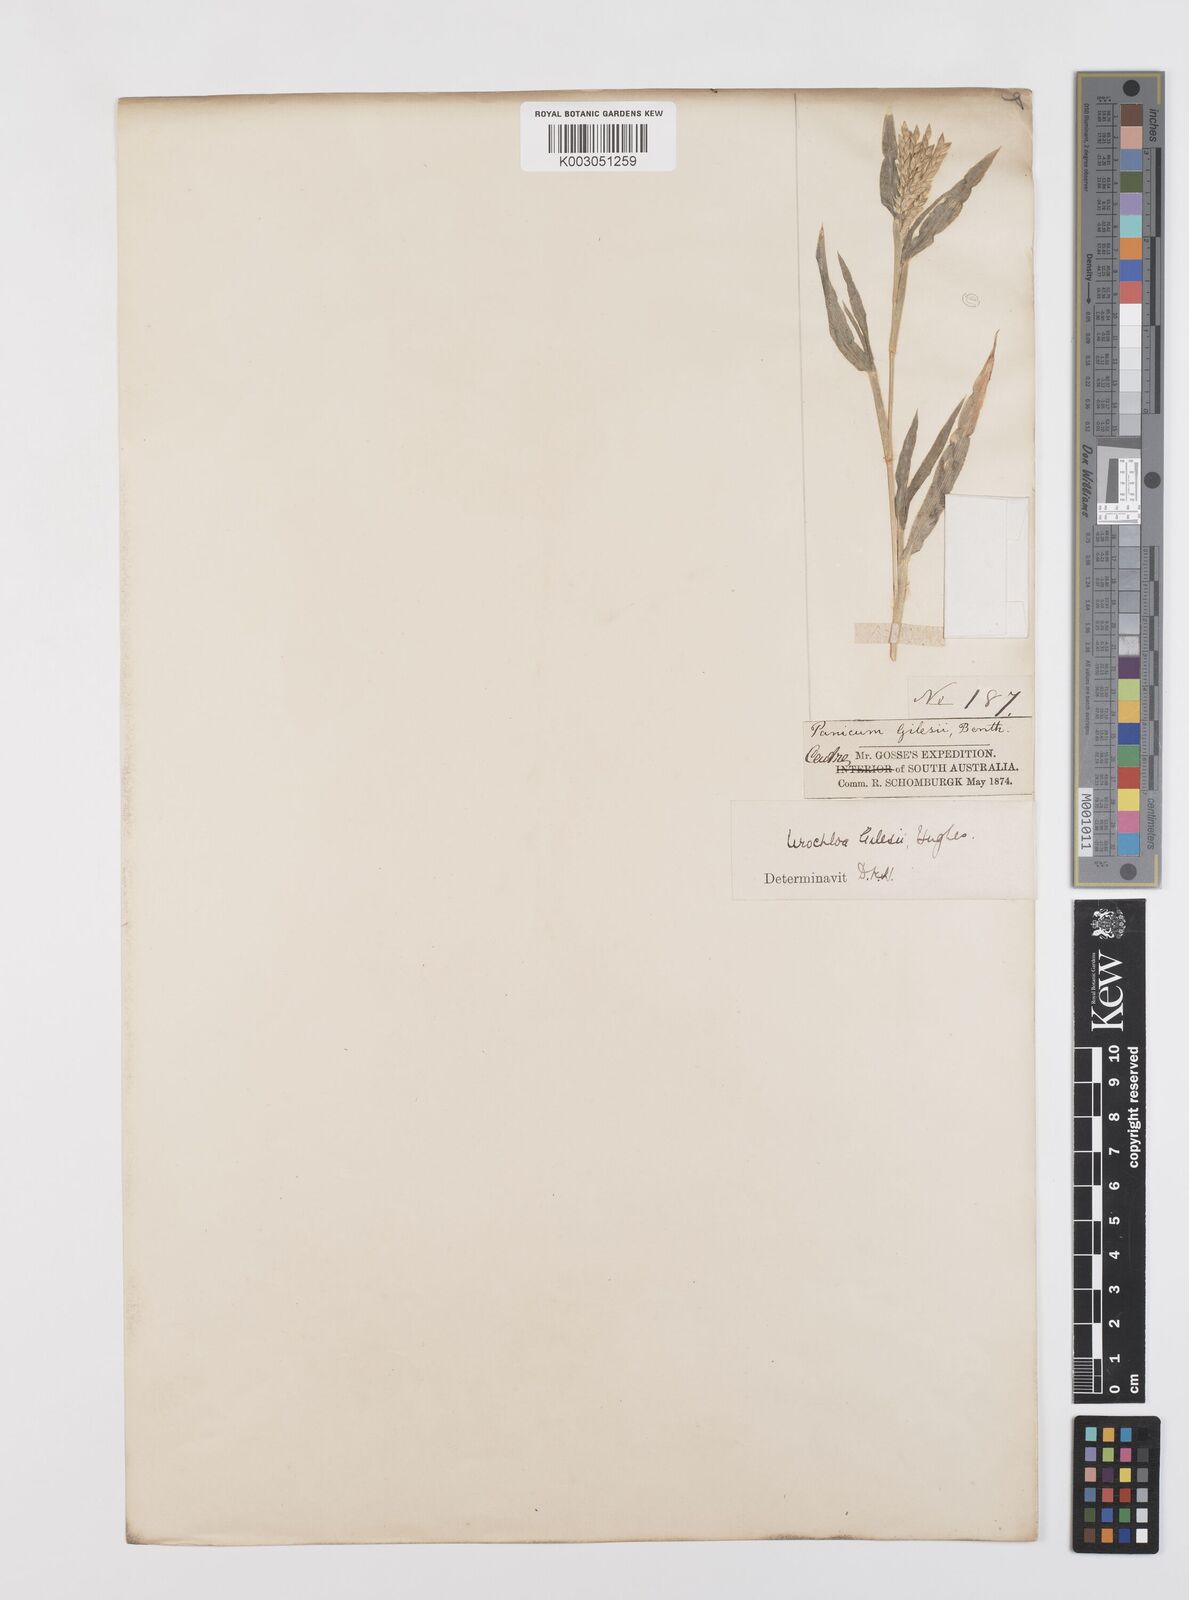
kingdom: Plantae
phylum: Tracheophyta
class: Liliopsida
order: Poales
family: Poaceae
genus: Urochloa
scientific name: Urochloa gilesii
